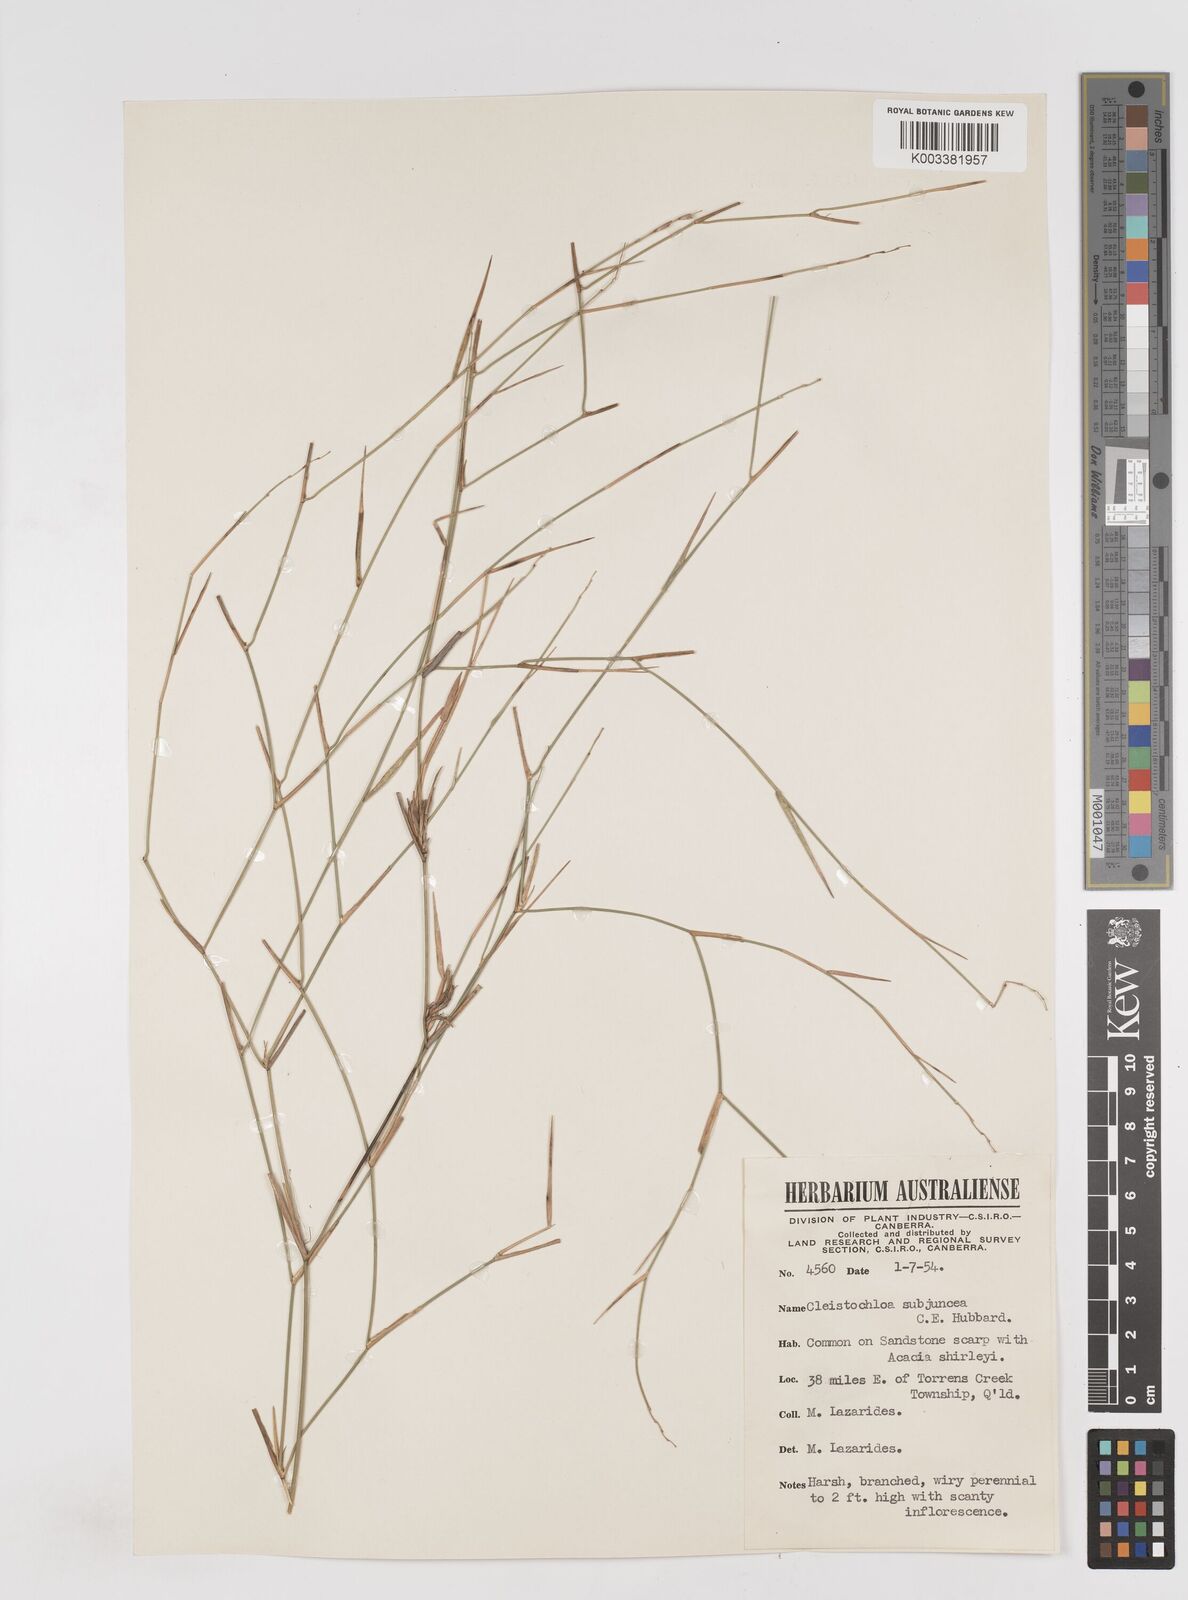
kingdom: Plantae
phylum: Tracheophyta
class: Liliopsida
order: Poales
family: Poaceae
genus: Cleistochloa
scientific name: Cleistochloa subjuncea
